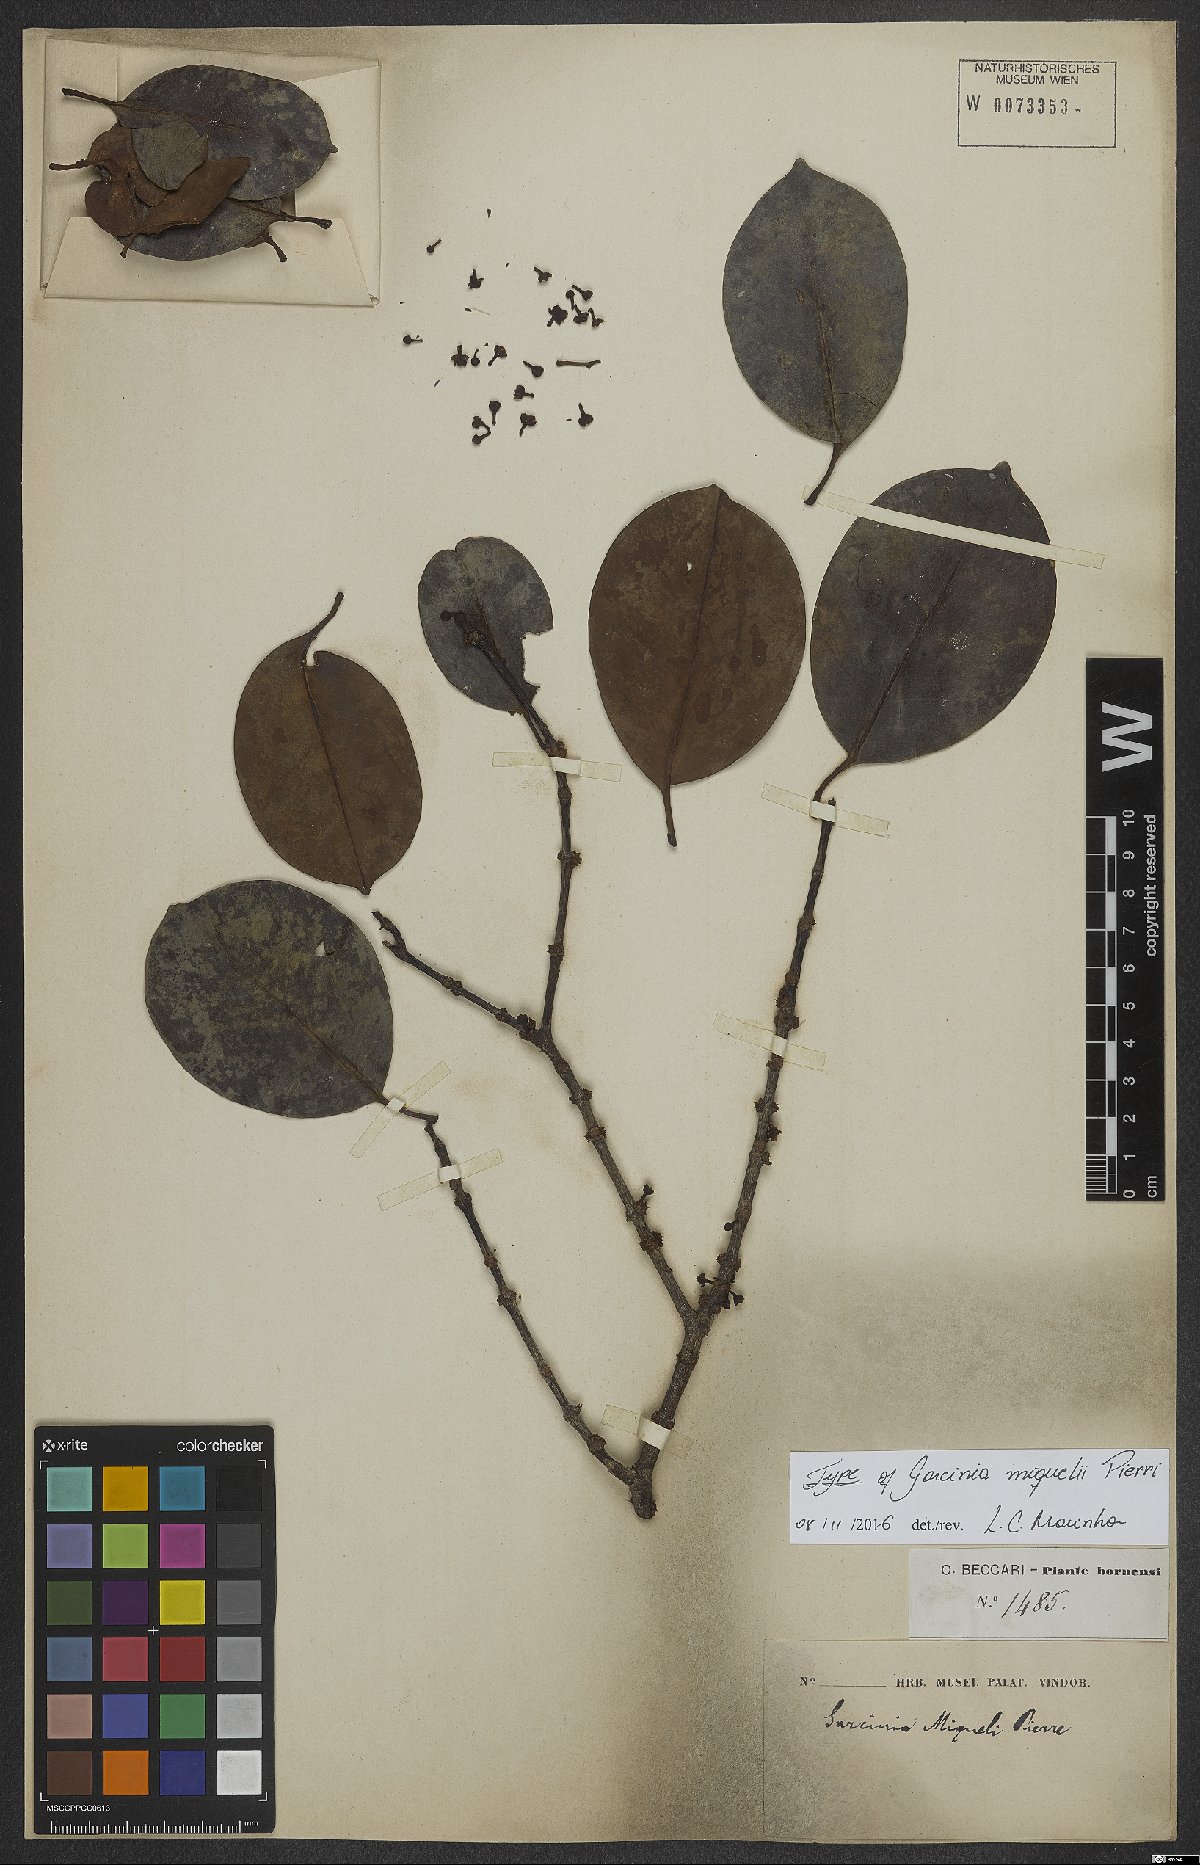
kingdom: Plantae
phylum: Tracheophyta
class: Magnoliopsida
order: Malpighiales
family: Clusiaceae
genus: Garcinia
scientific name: Garcinia miquelii
